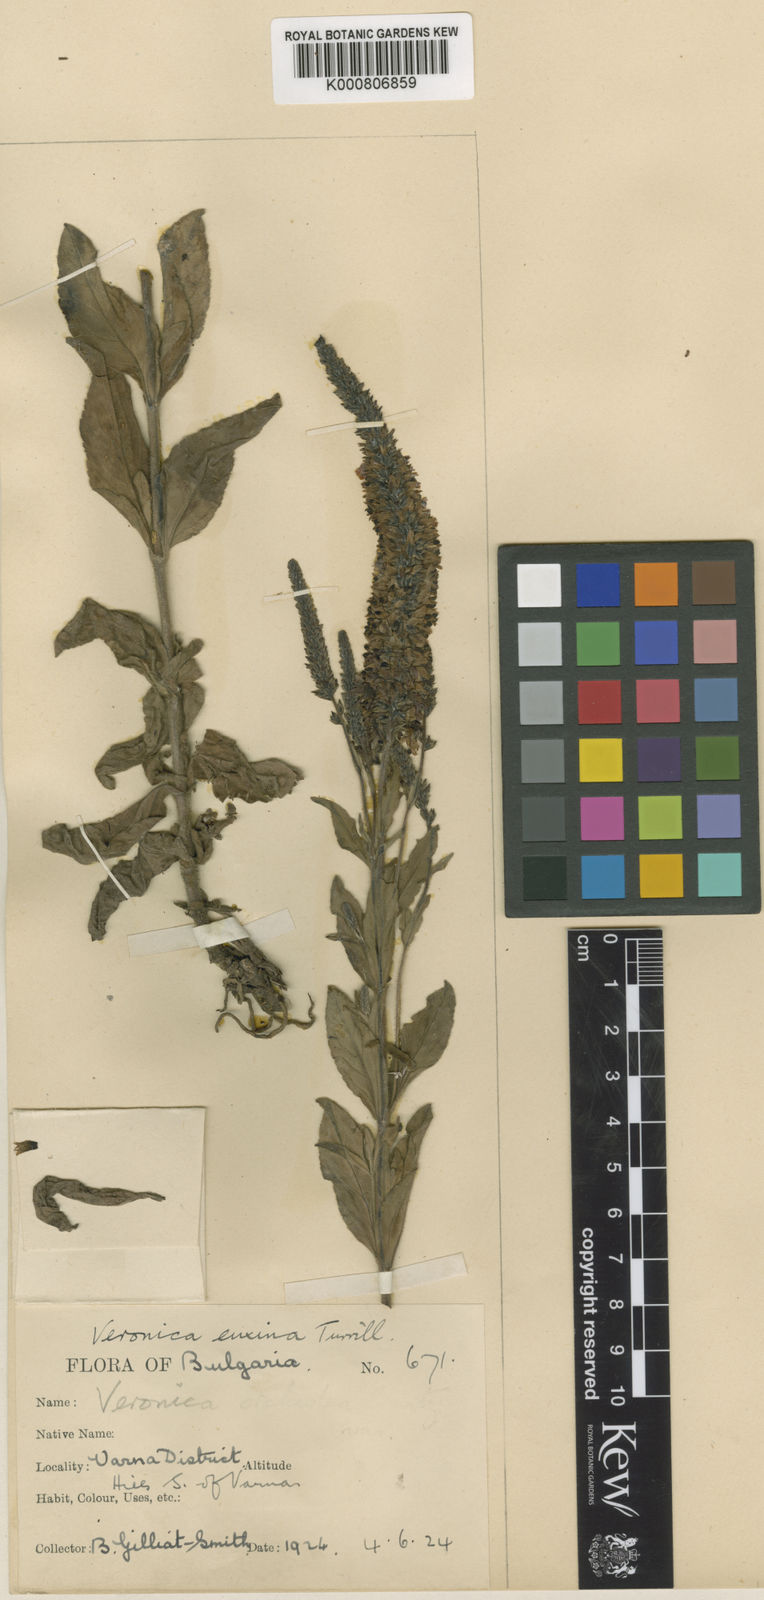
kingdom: Plantae
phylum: Tracheophyta
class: Magnoliopsida
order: Lamiales
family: Plantaginaceae
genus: Veronica
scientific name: Veronica spicata
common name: Spiked speedwell
